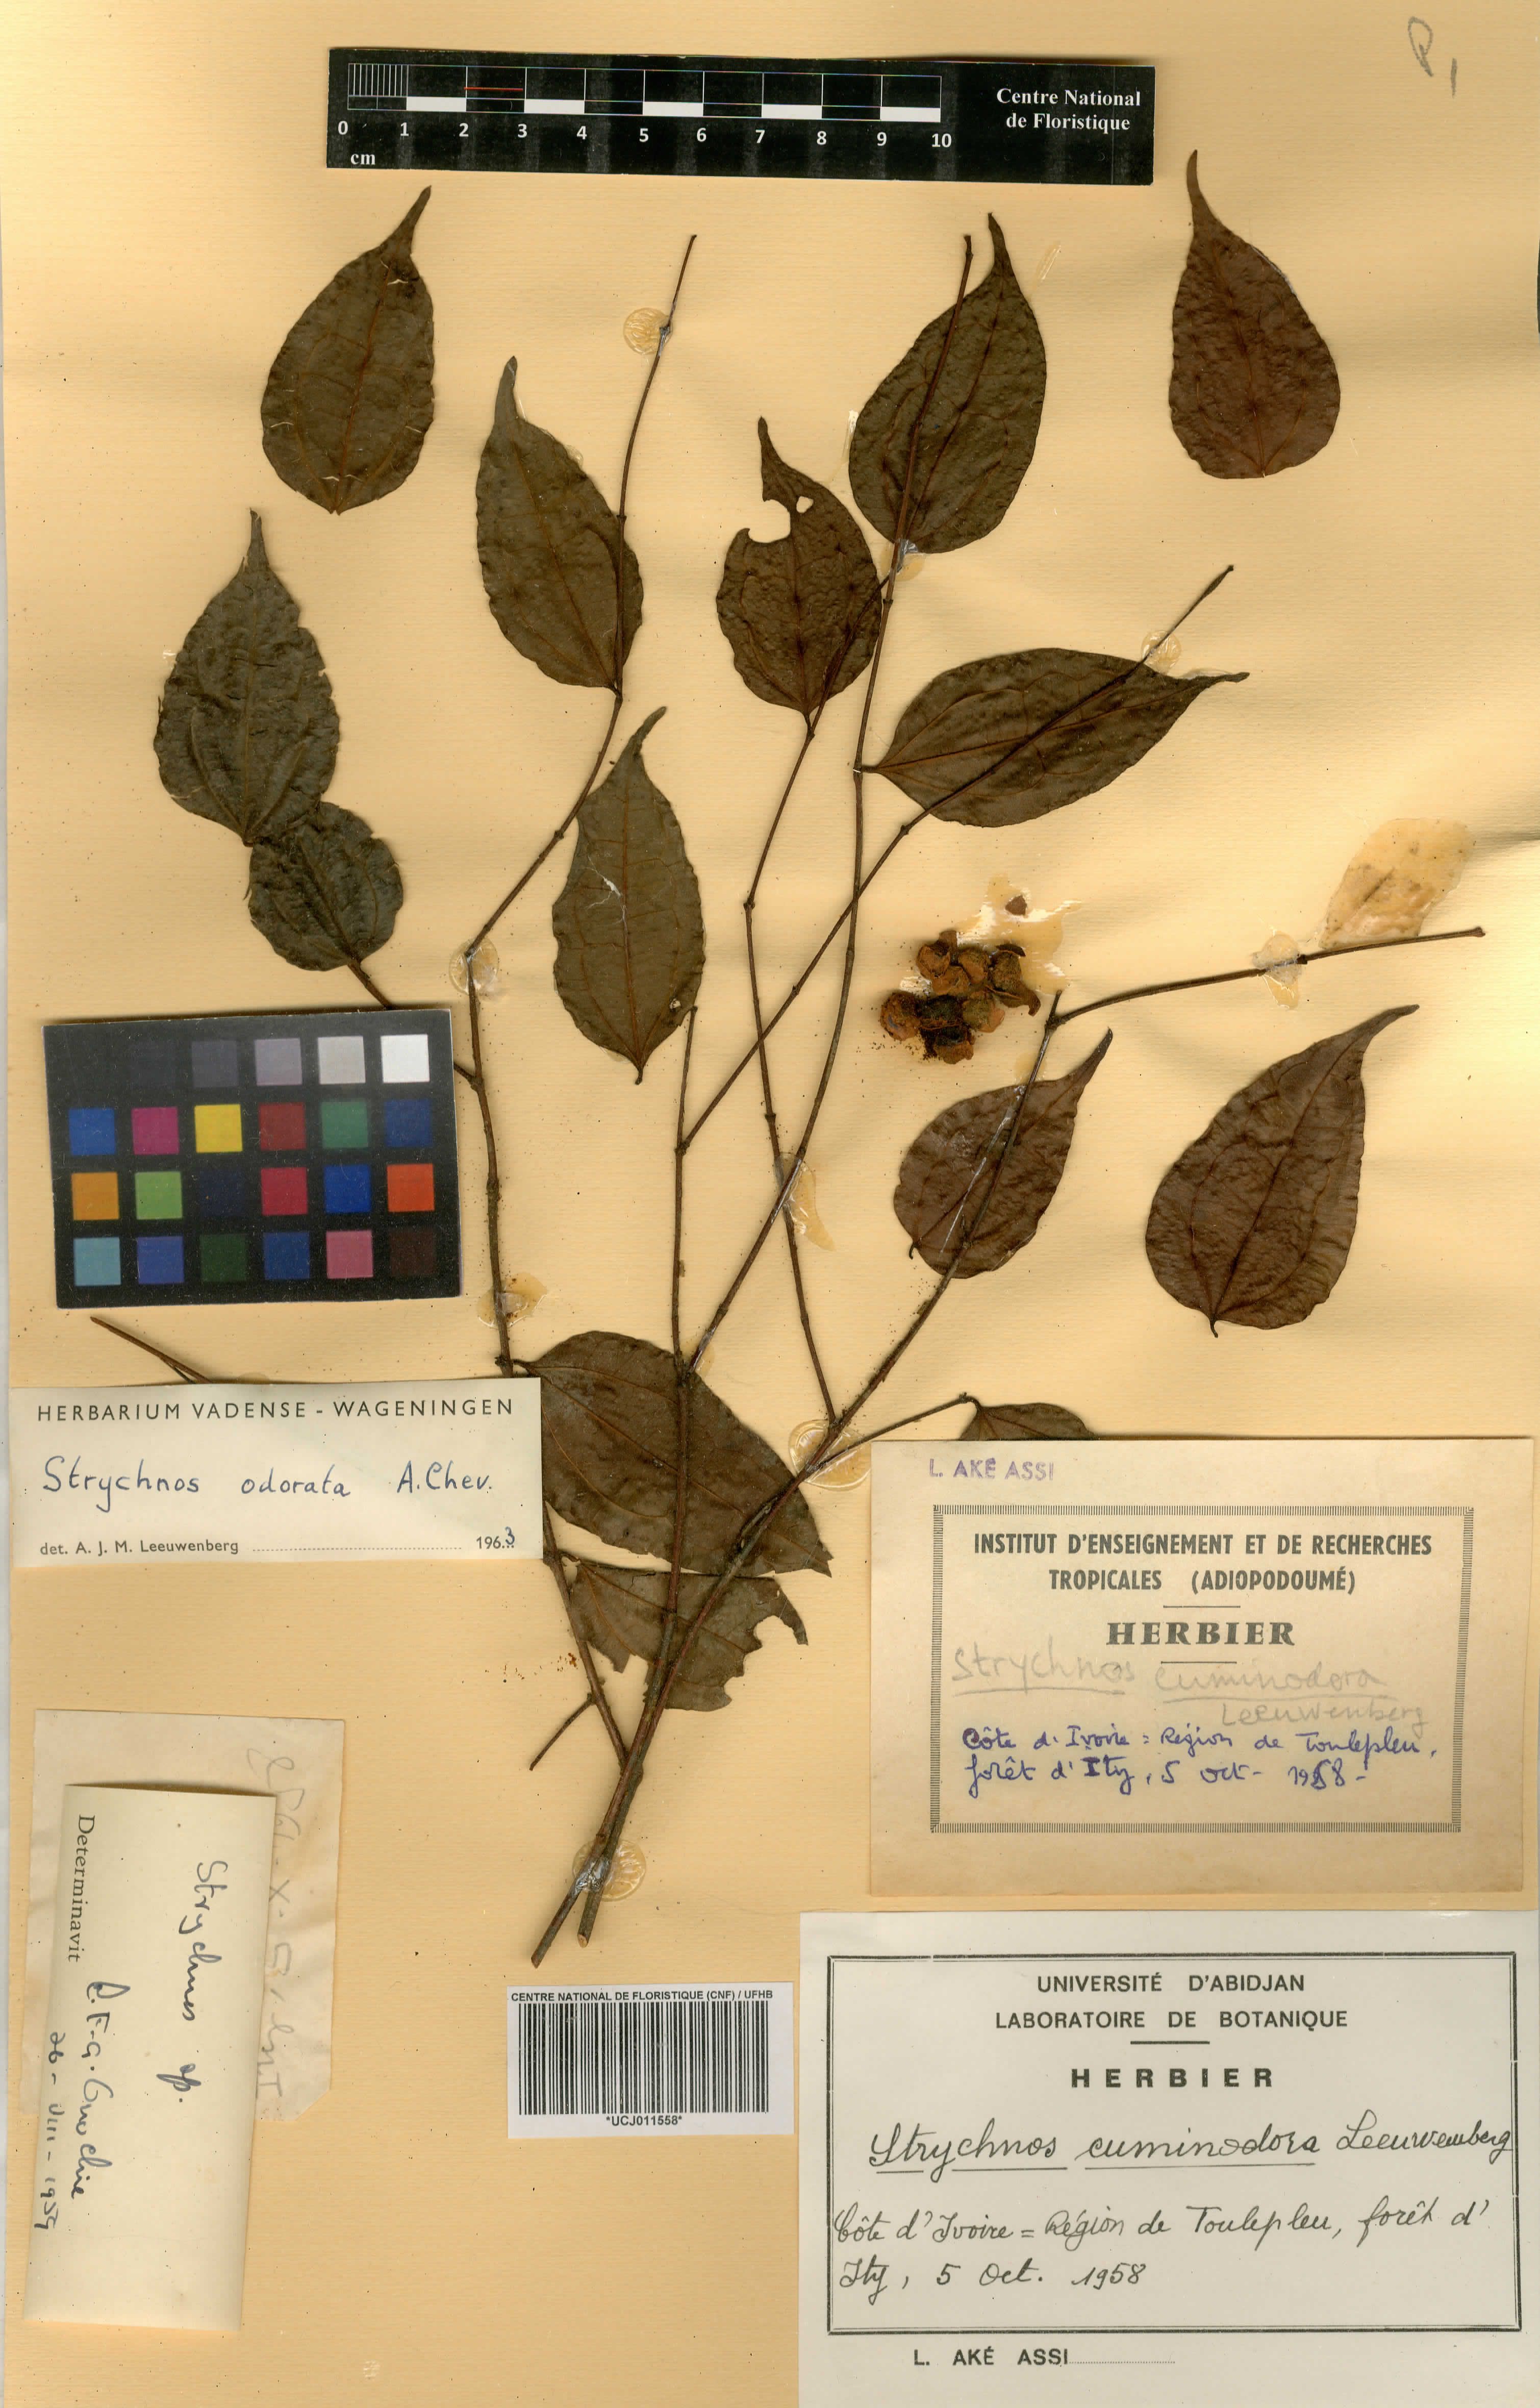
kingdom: Plantae
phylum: Tracheophyta
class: Magnoliopsida
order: Gentianales
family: Loganiaceae
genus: Strychnos
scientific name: Strychnos cuminodora
